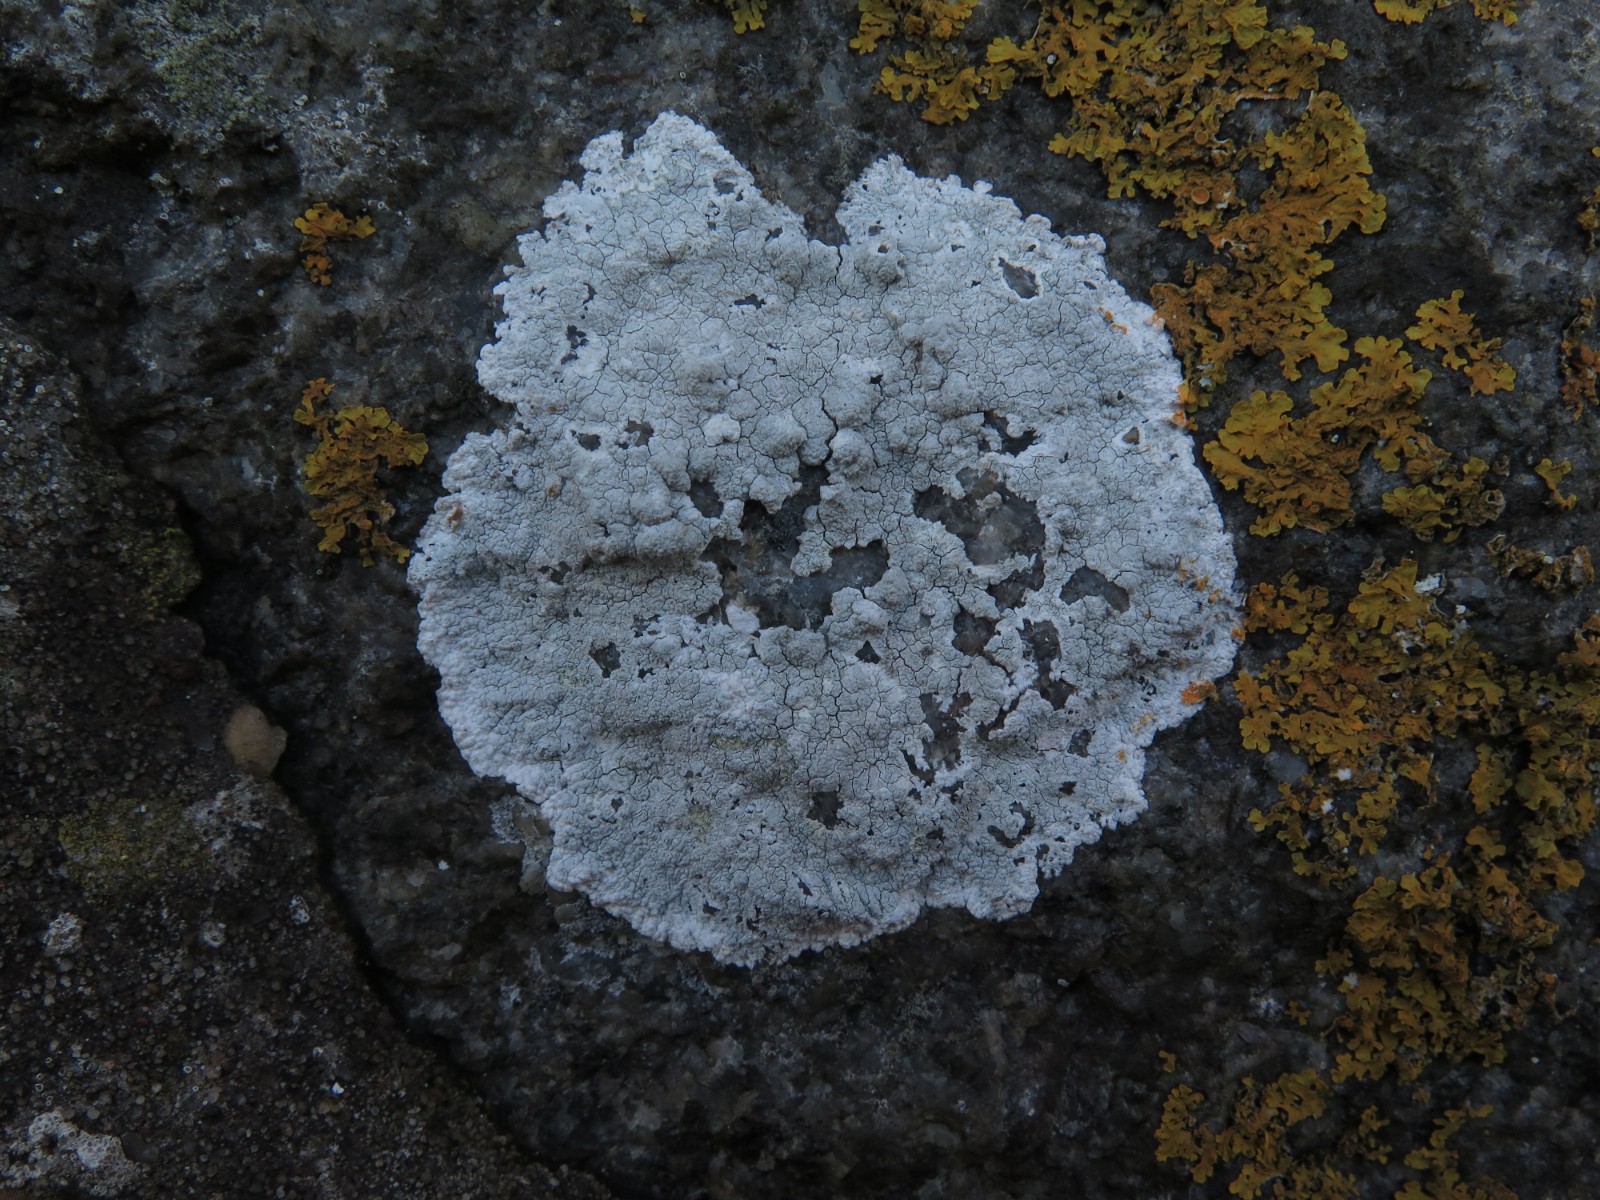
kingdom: Fungi
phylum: Ascomycota
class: Lecanoromycetes
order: Lecanorales
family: Lecanoraceae
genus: Glaucomaria
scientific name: Glaucomaria rupicola
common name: stengærde-kantskivelav
